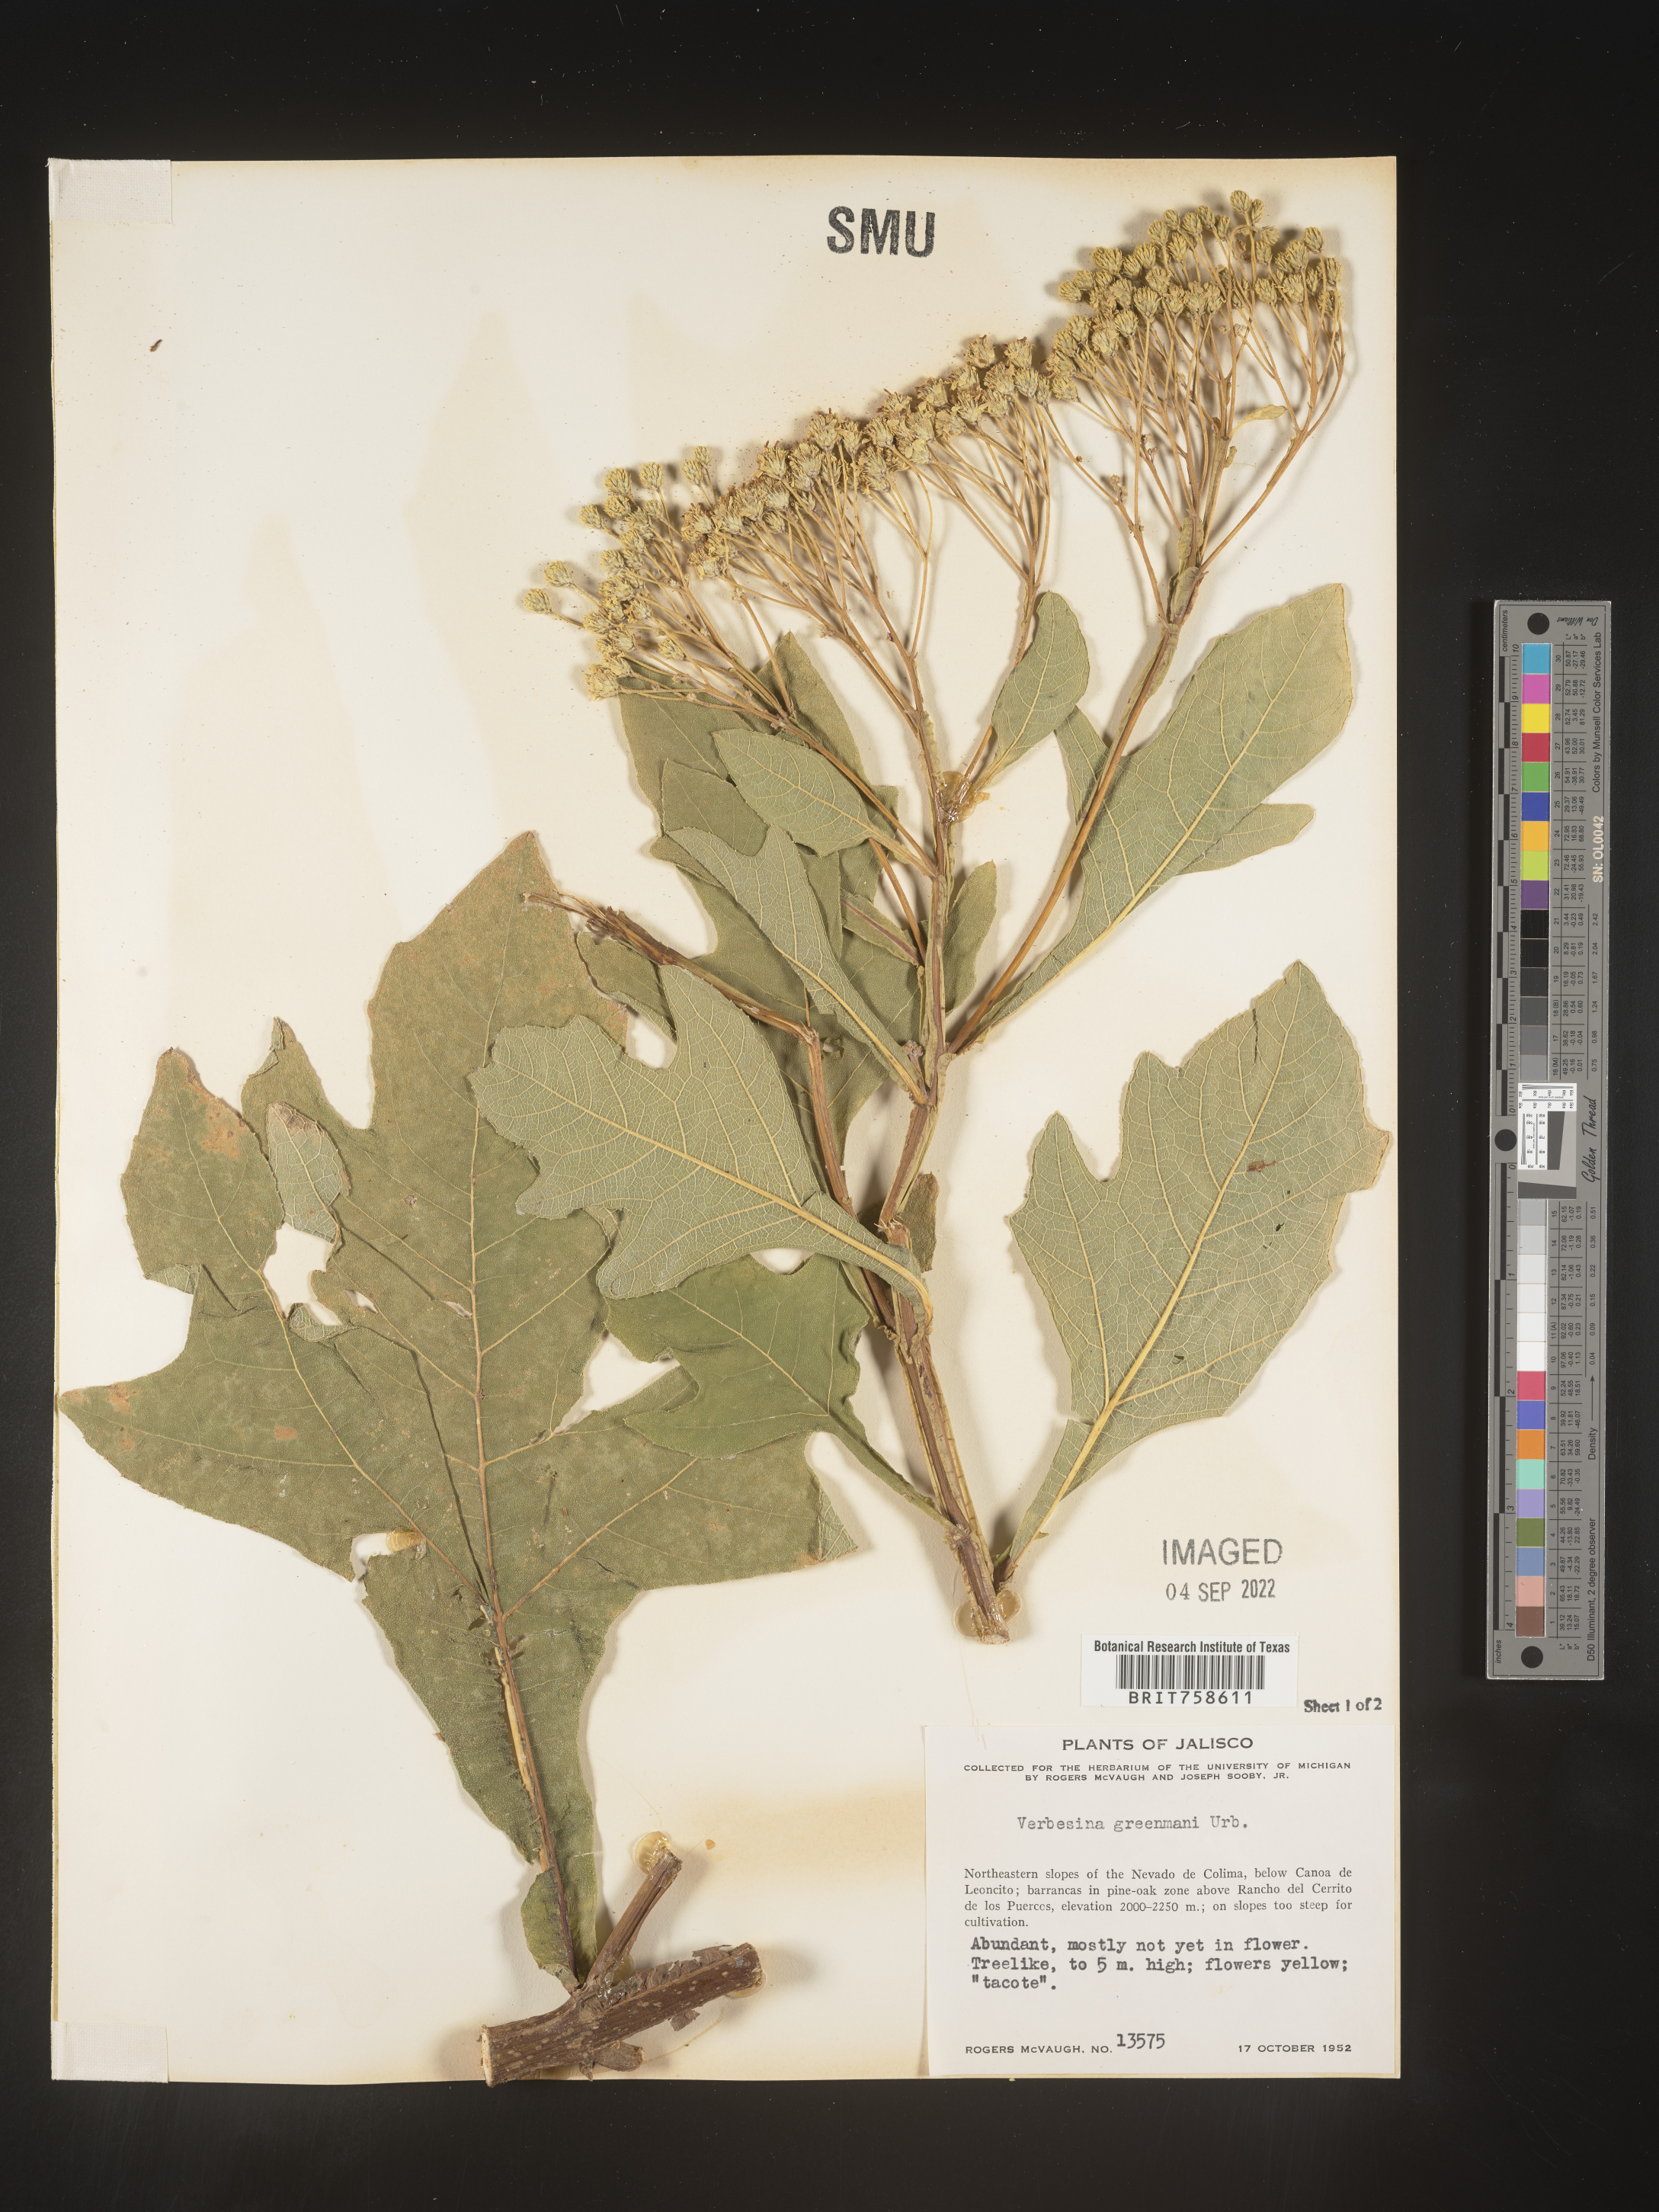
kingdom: Plantae
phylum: Tracheophyta
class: Magnoliopsida
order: Asterales
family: Asteraceae
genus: Verbesina
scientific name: Verbesina
